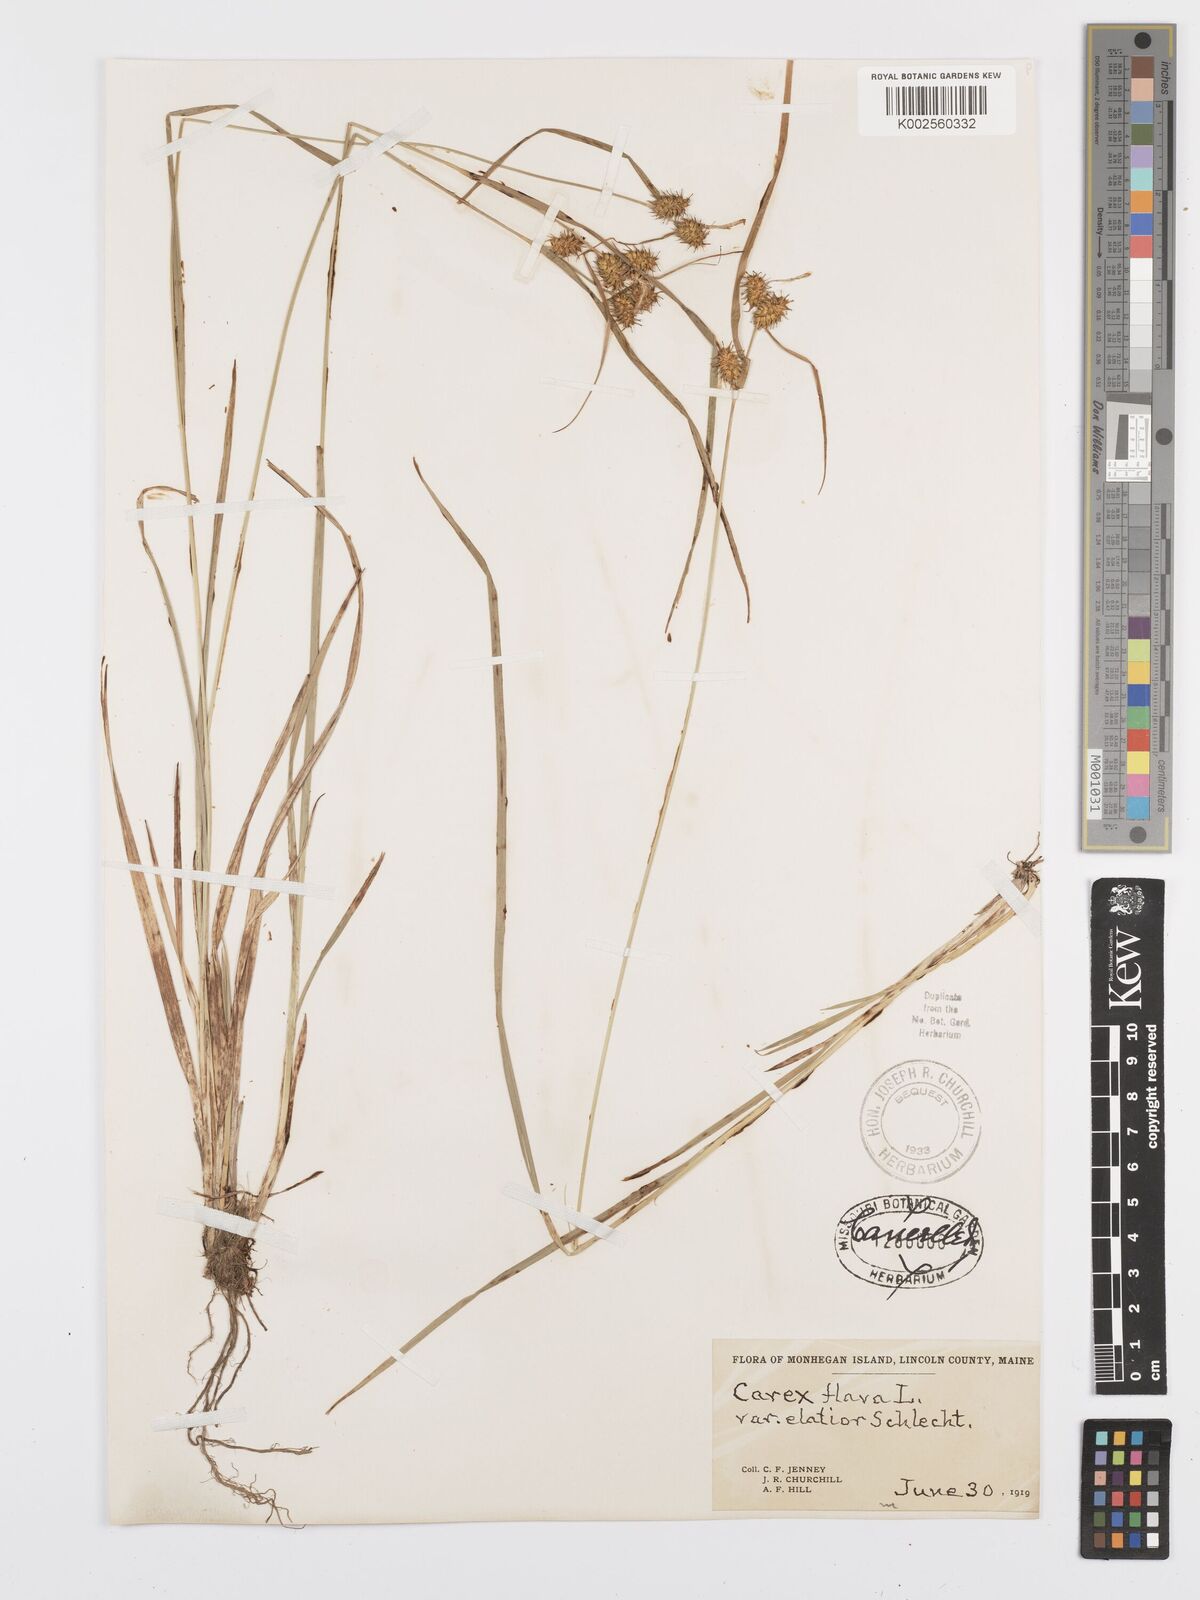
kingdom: Plantae
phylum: Tracheophyta
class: Liliopsida
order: Poales
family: Cyperaceae
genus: Carex
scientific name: Carex flava
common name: Large yellow-sedge
